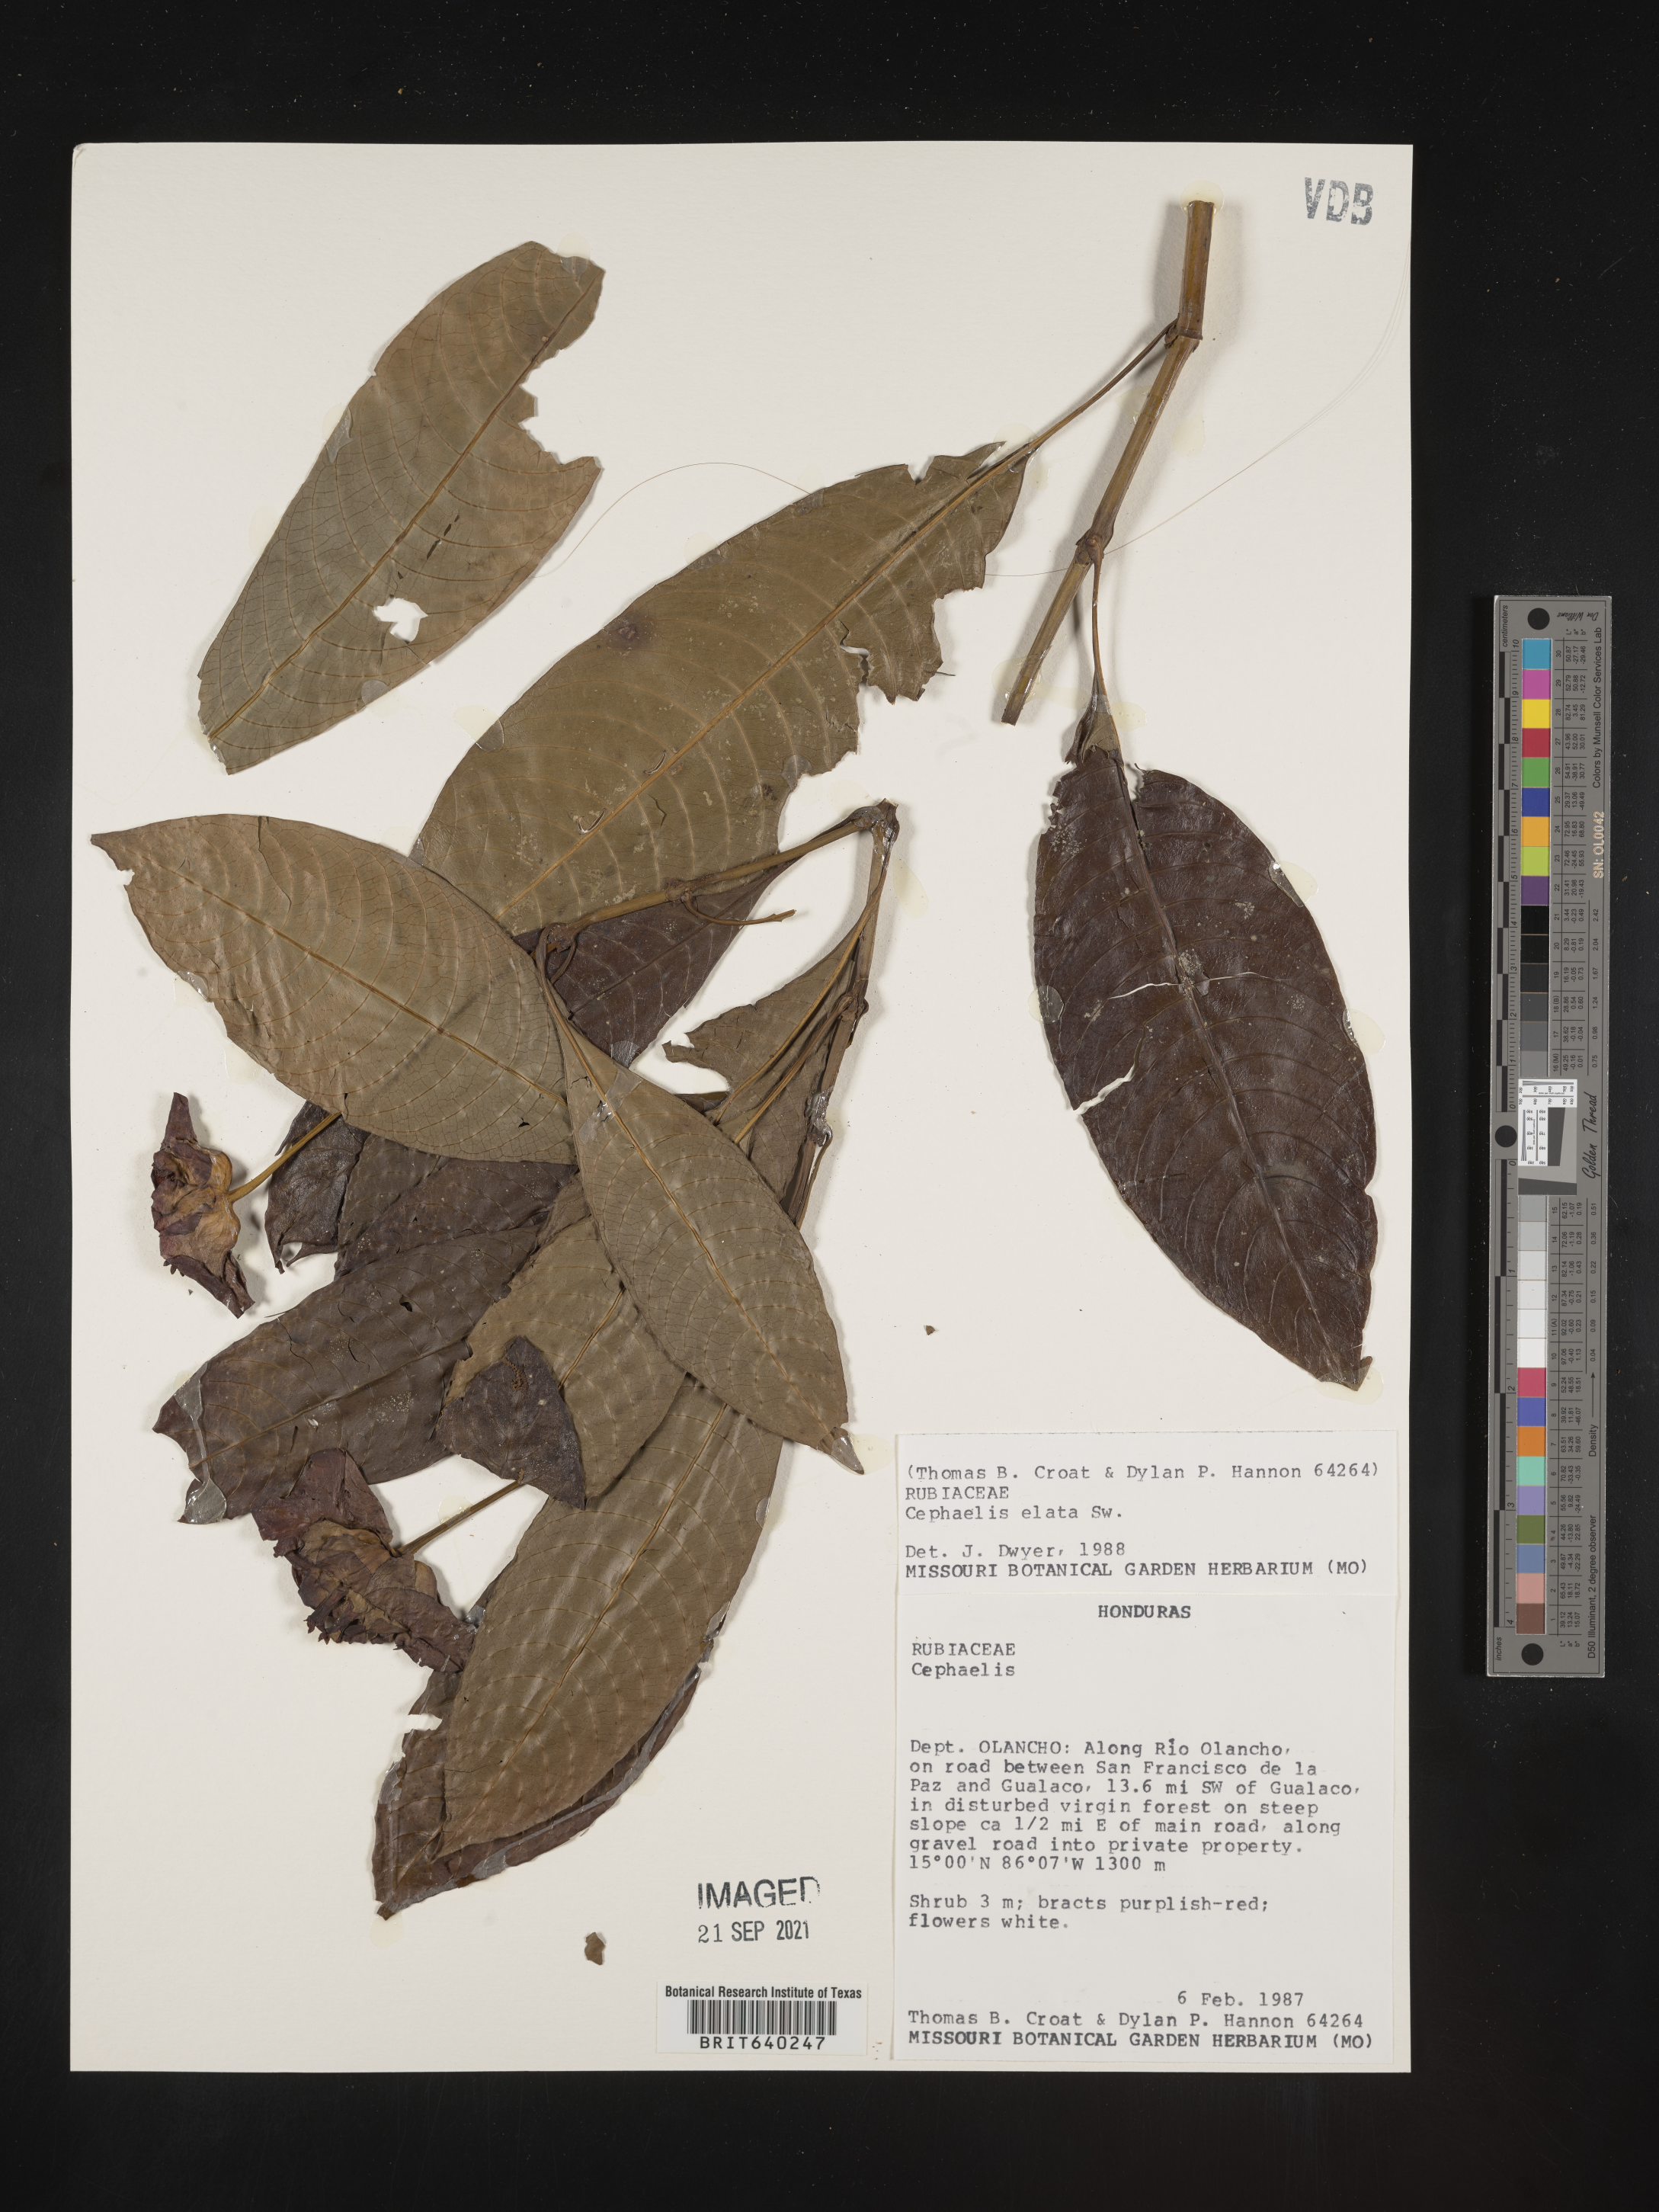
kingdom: Plantae
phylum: Tracheophyta
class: Magnoliopsida
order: Gentianales
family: Rubiaceae
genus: Psychotria
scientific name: Psychotria
